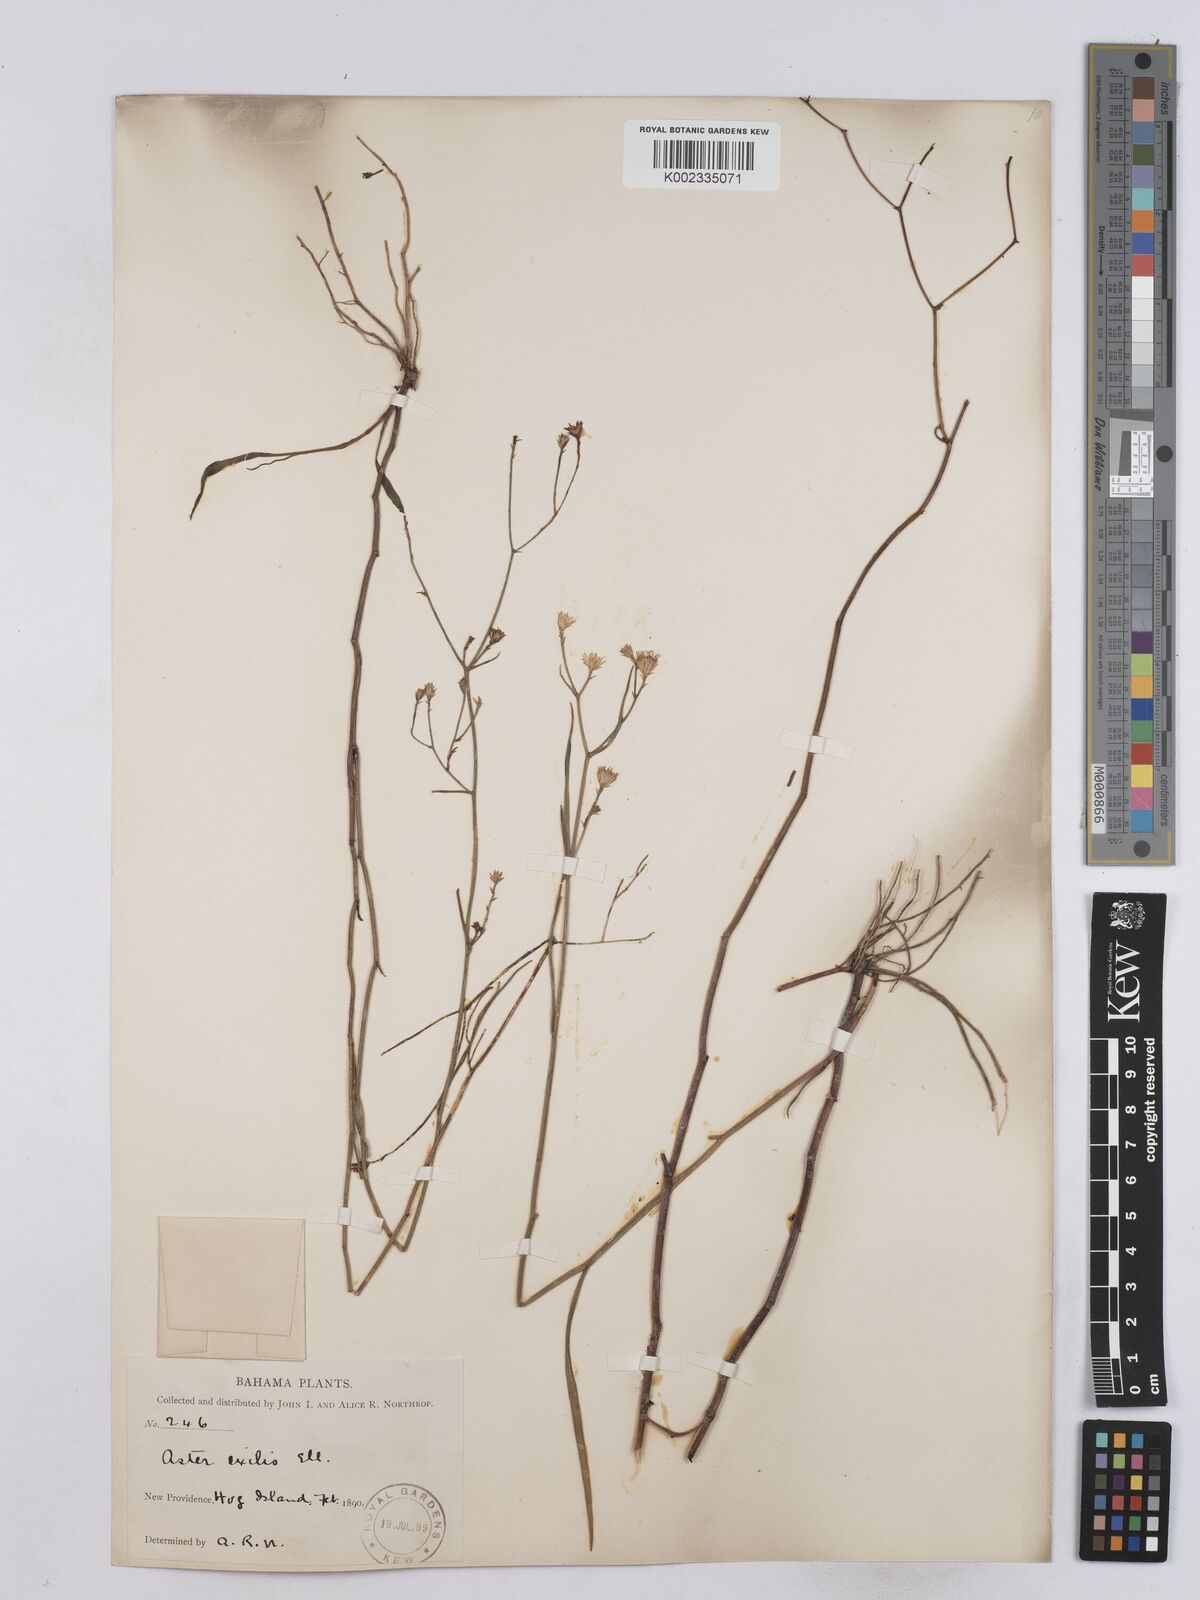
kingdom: Plantae
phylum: Tracheophyta
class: Magnoliopsida
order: Asterales
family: Asteraceae
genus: Symphyotrichum
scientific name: Symphyotrichum tenuifolium
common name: Perennial salt-marsh aster
